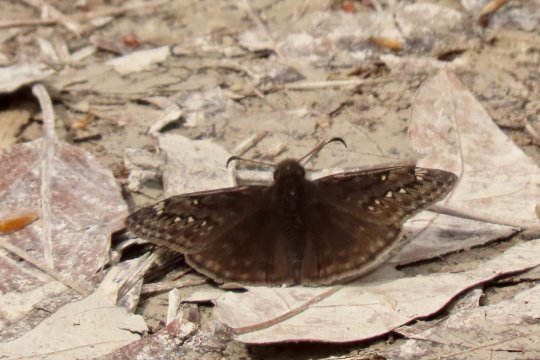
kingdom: Animalia
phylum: Arthropoda
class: Insecta
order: Lepidoptera
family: Hesperiidae
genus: Gesta
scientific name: Gesta
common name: Juvenal's Duskywing
